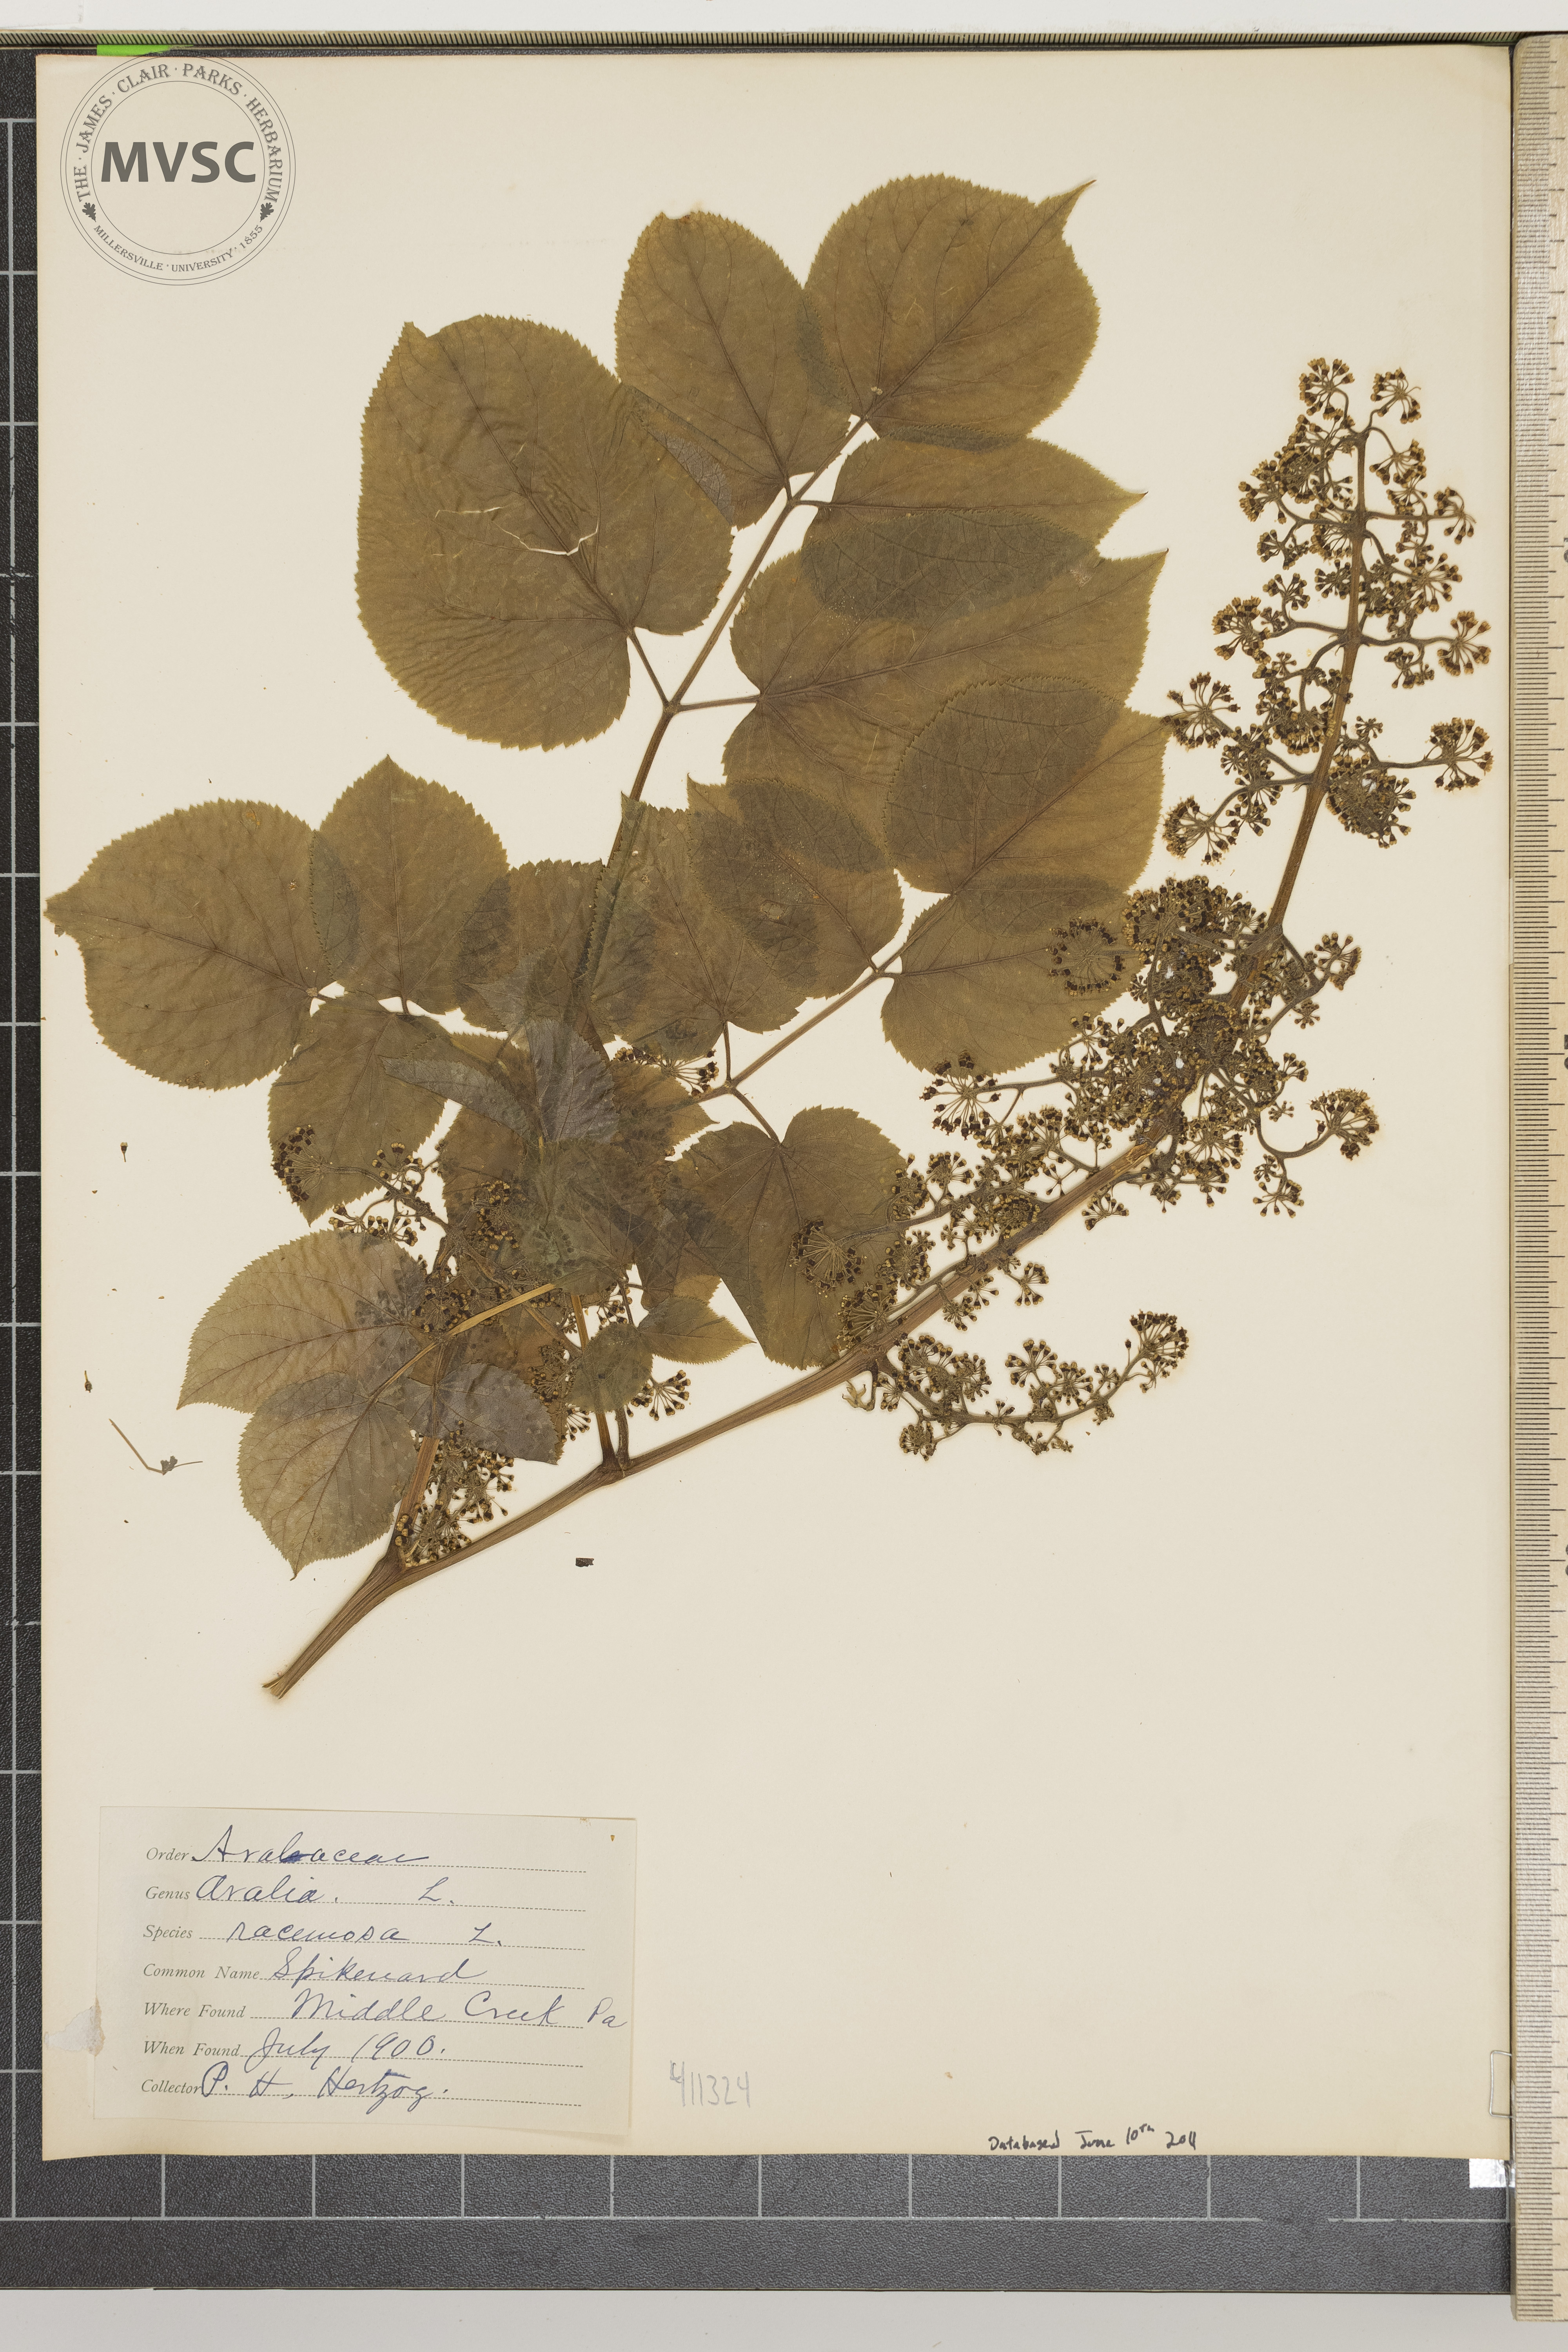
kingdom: Plantae
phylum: Tracheophyta
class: Magnoliopsida
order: Apiales
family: Araliaceae
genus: Aralia
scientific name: Aralia racemosa
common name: Spikenard
